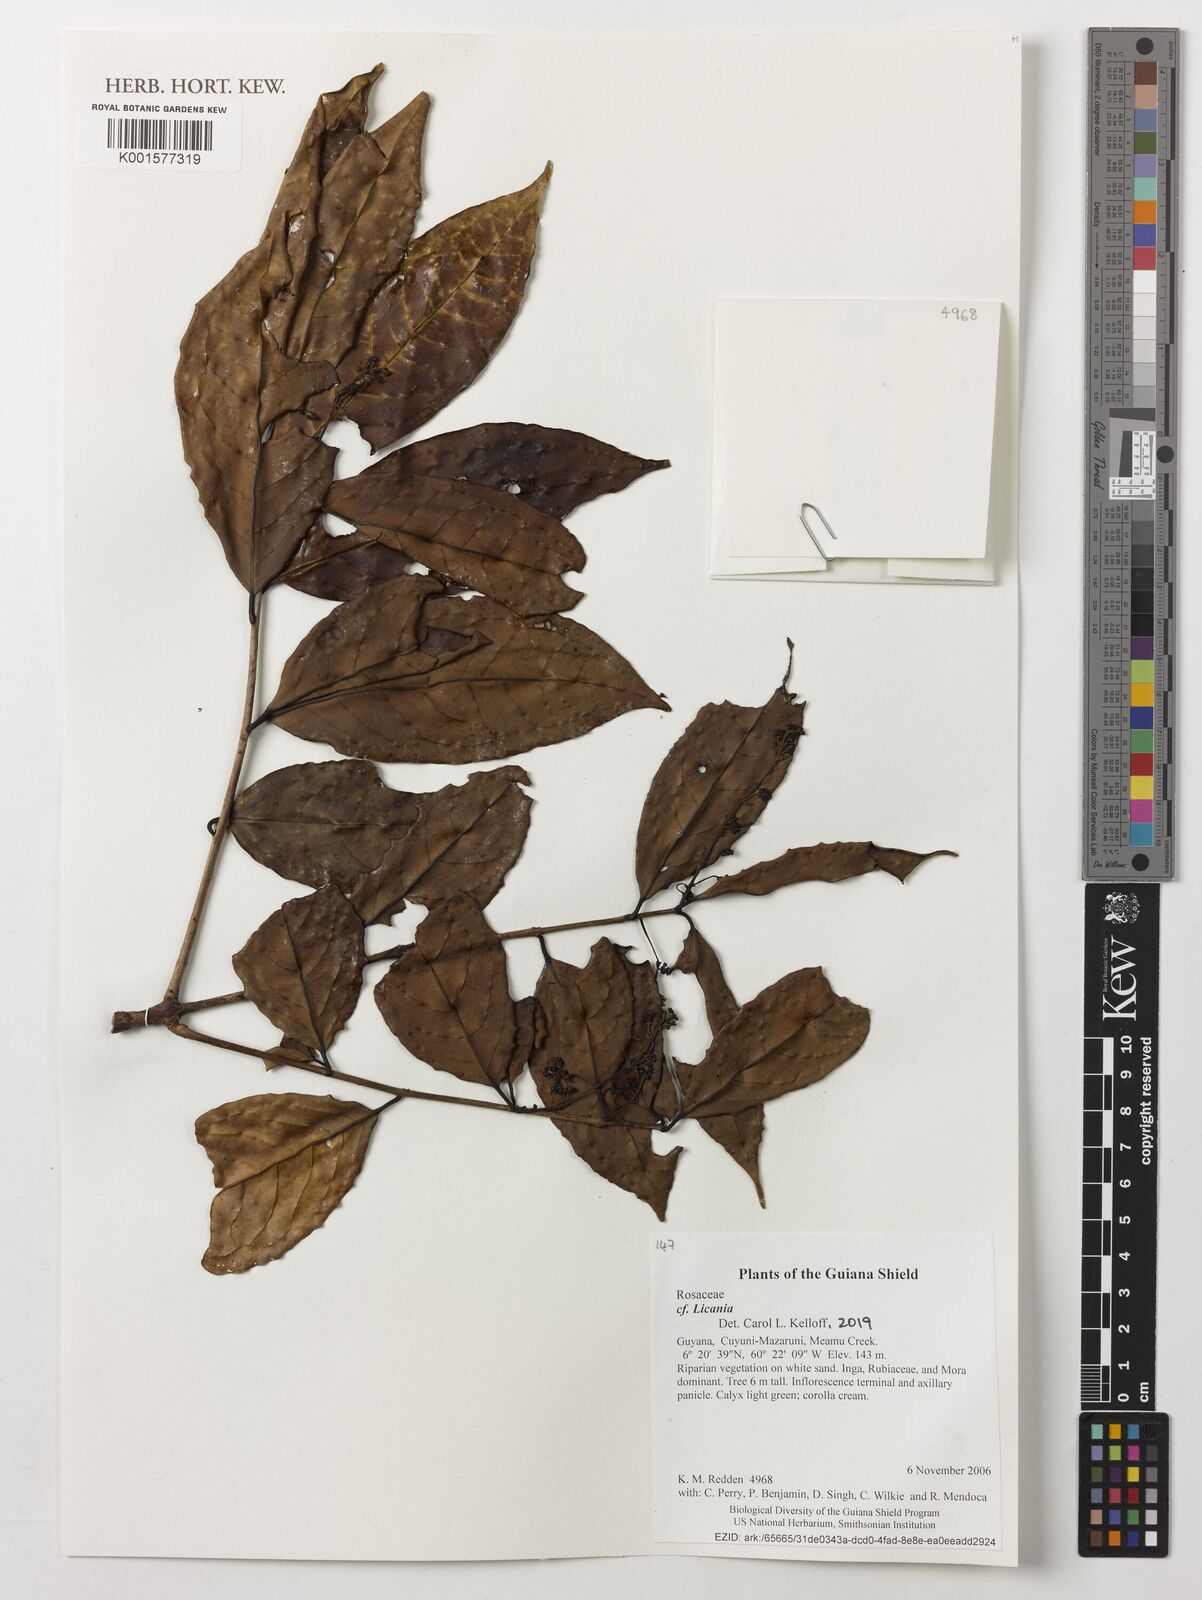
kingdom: Plantae
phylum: Tracheophyta
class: Magnoliopsida
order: Malpighiales
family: Chrysobalanaceae
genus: Licania
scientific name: Licania
